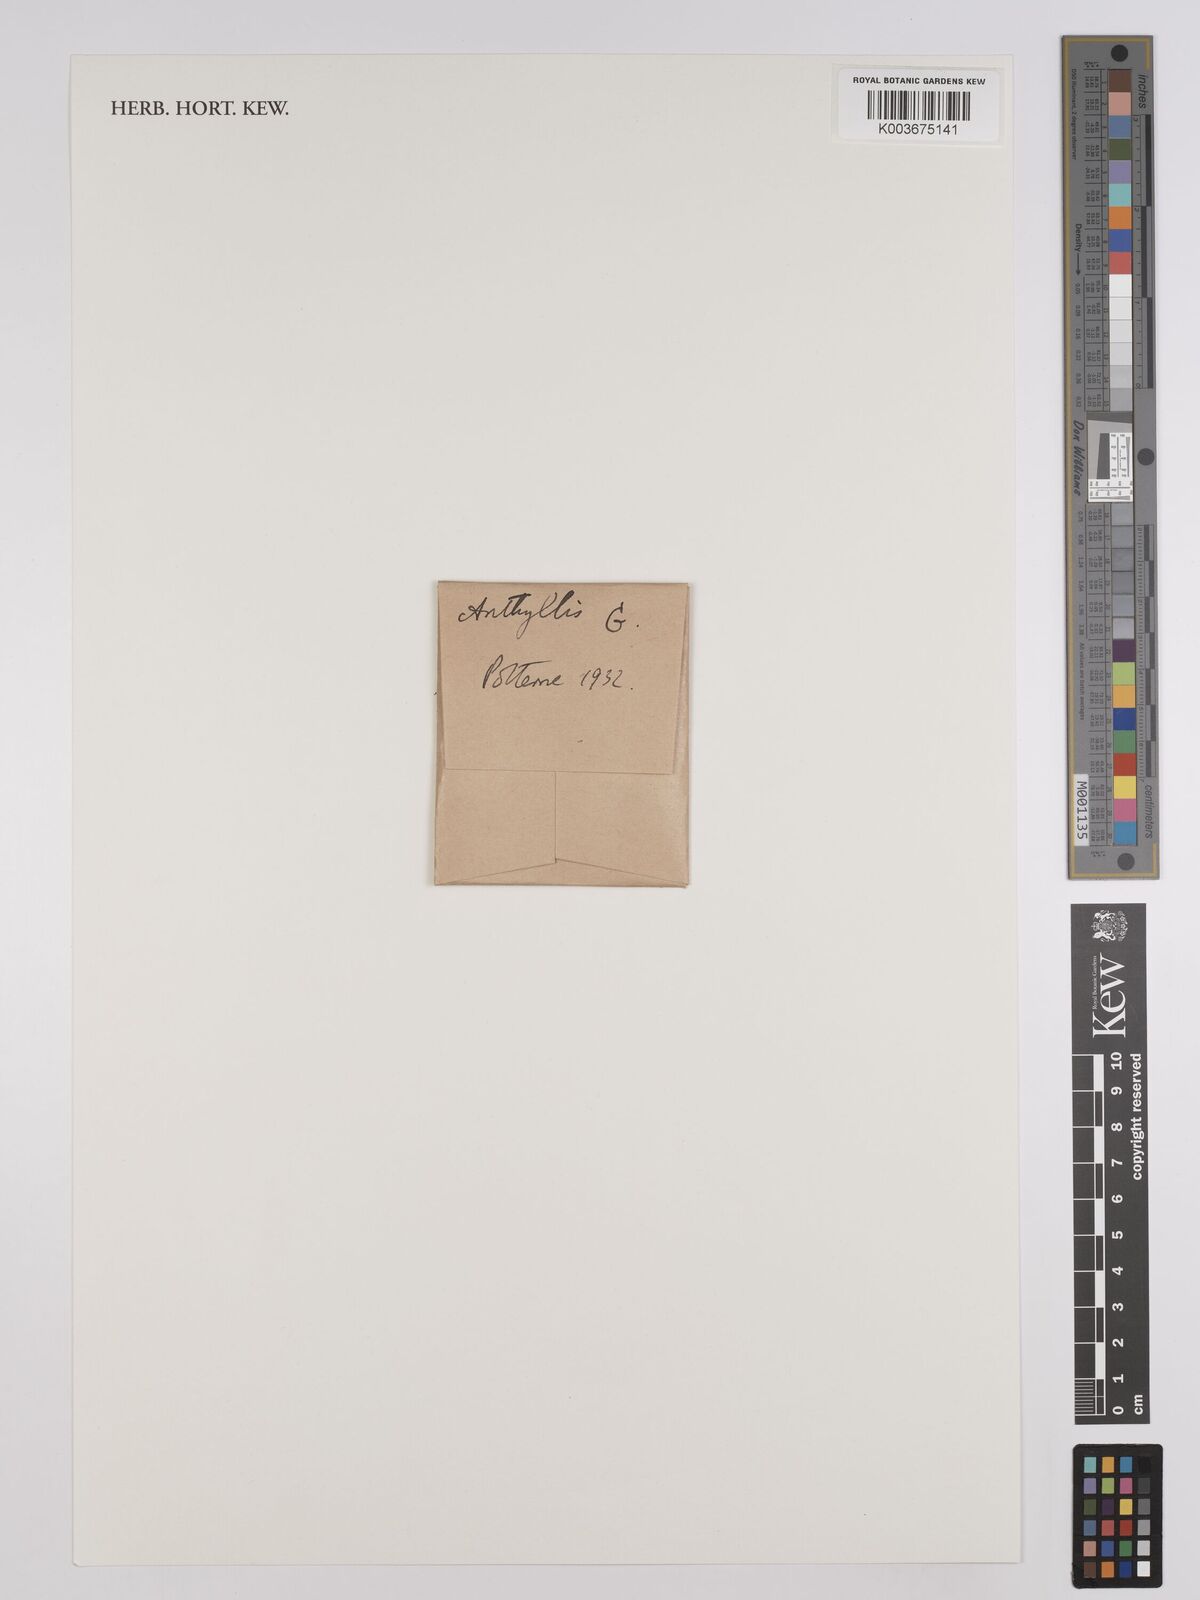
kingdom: Plantae
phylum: Tracheophyta
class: Magnoliopsida
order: Fabales
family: Fabaceae
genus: Anthyllis
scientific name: Anthyllis
